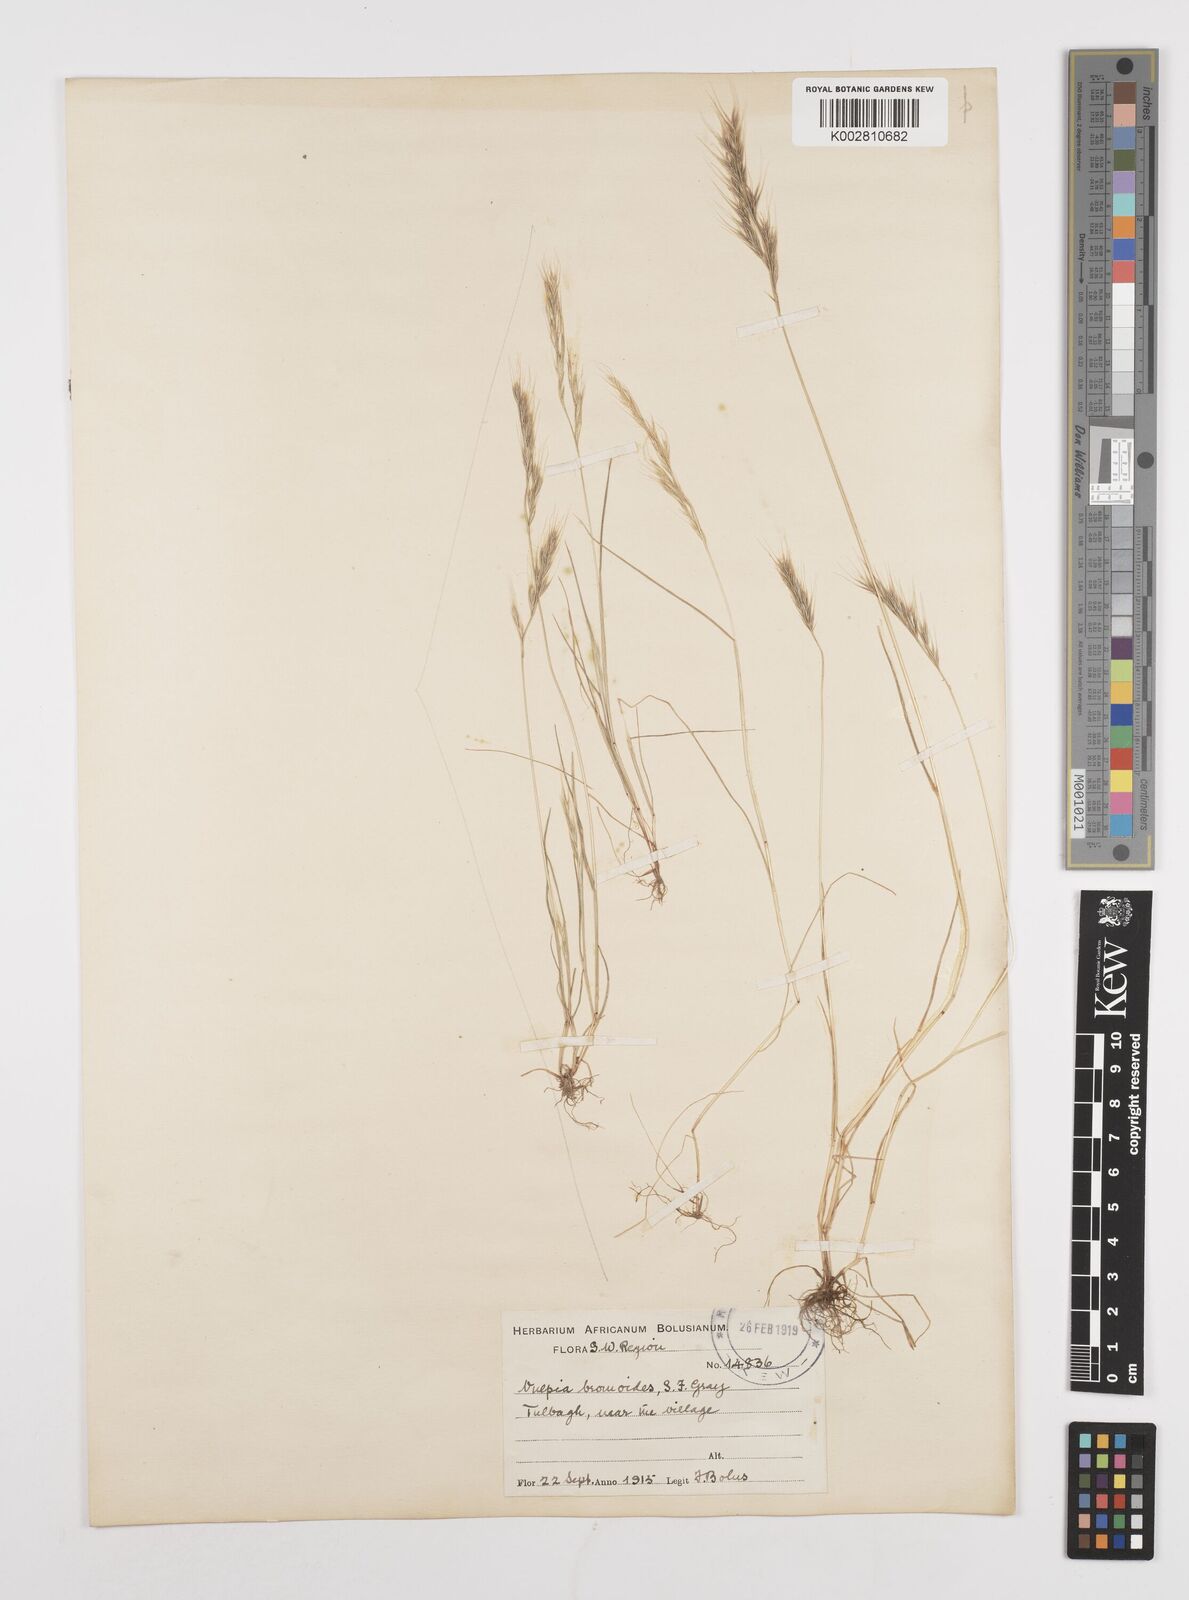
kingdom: Plantae
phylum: Tracheophyta
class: Liliopsida
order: Poales
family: Poaceae
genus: Festuca
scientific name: Festuca bromoides
